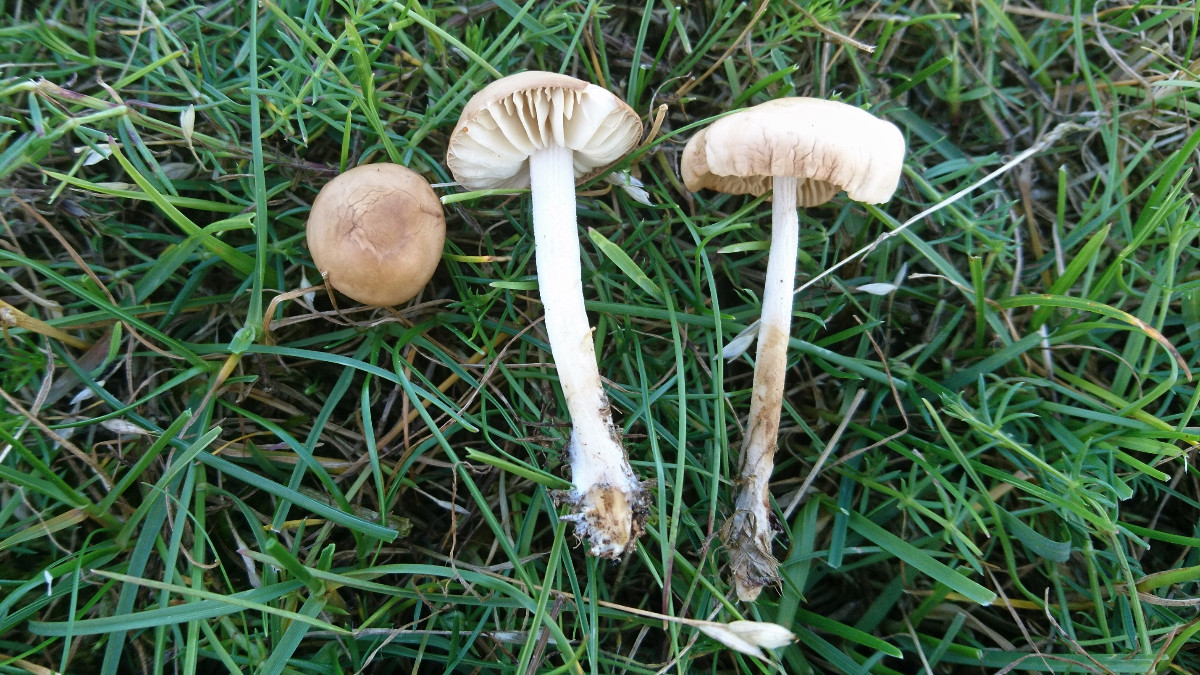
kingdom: Fungi
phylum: Basidiomycota
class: Agaricomycetes
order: Agaricales
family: Marasmiaceae
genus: Marasmius
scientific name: Marasmius oreades
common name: elledans-bruskhat
